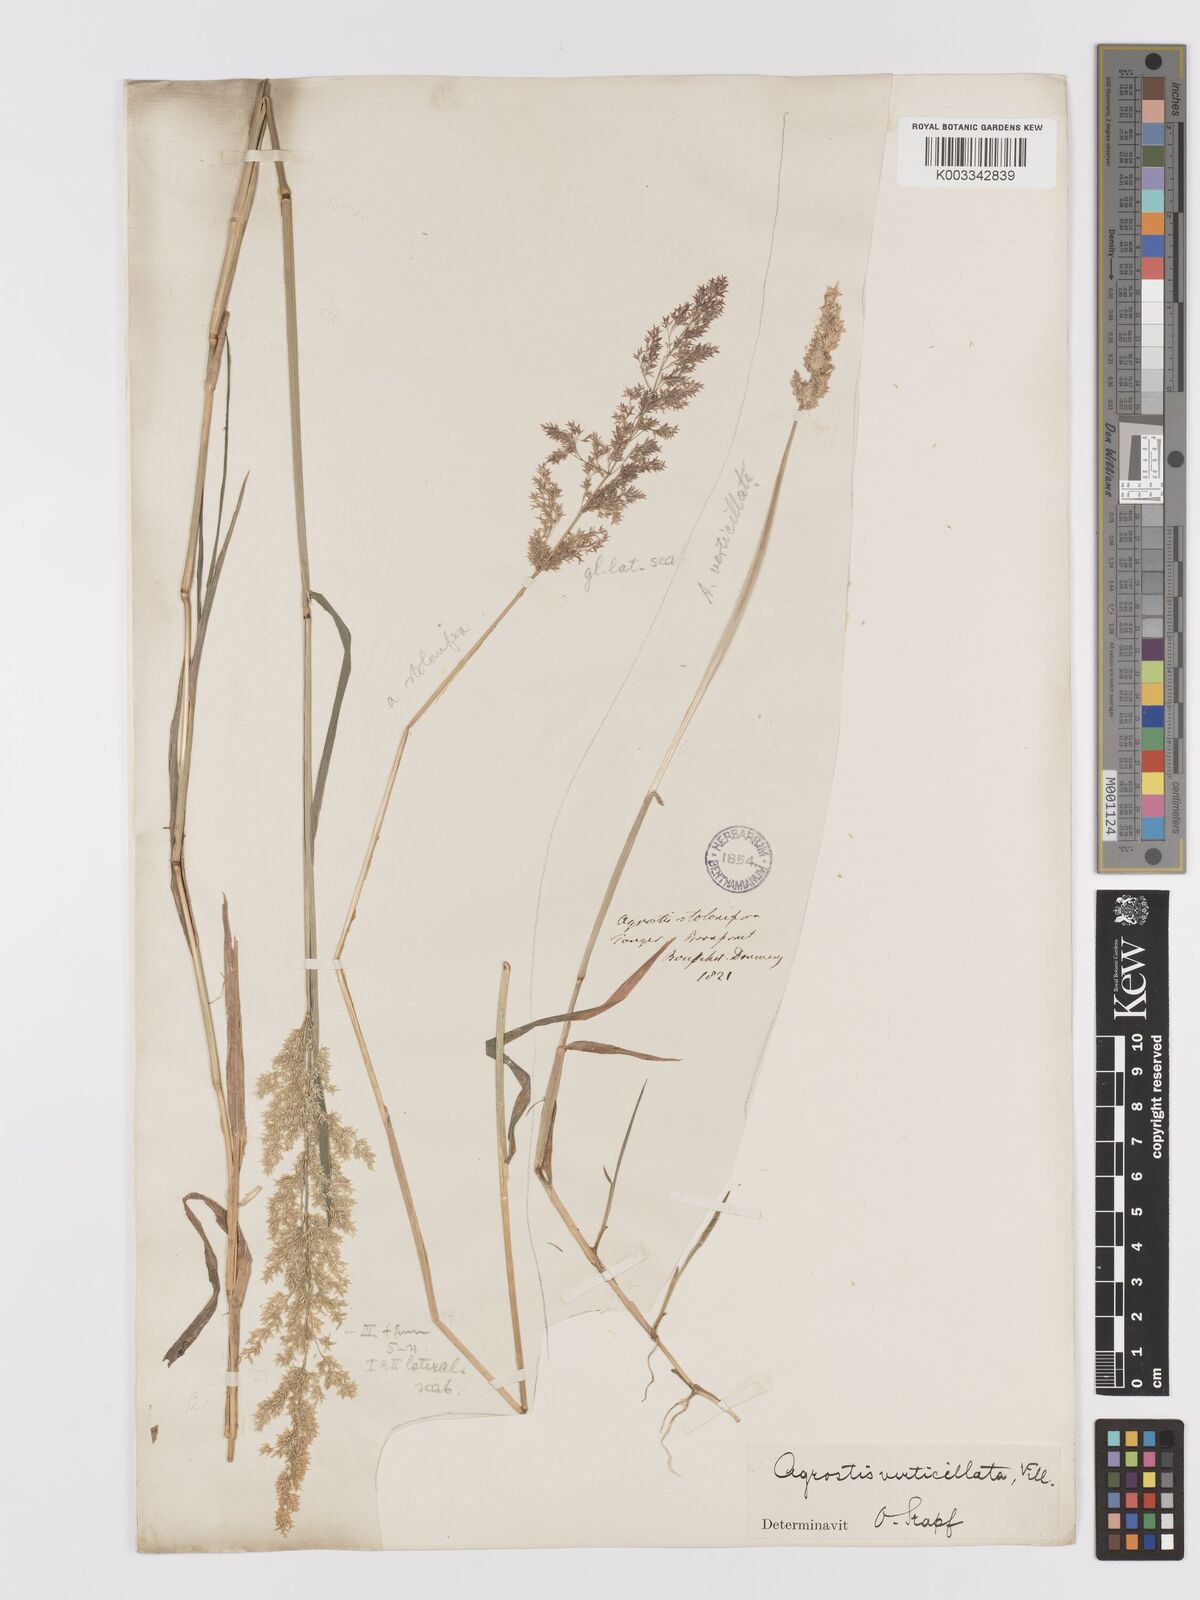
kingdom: Plantae
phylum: Tracheophyta
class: Liliopsida
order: Poales
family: Poaceae
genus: Agrostis
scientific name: Agrostis stolonifera
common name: Creeping bentgrass
